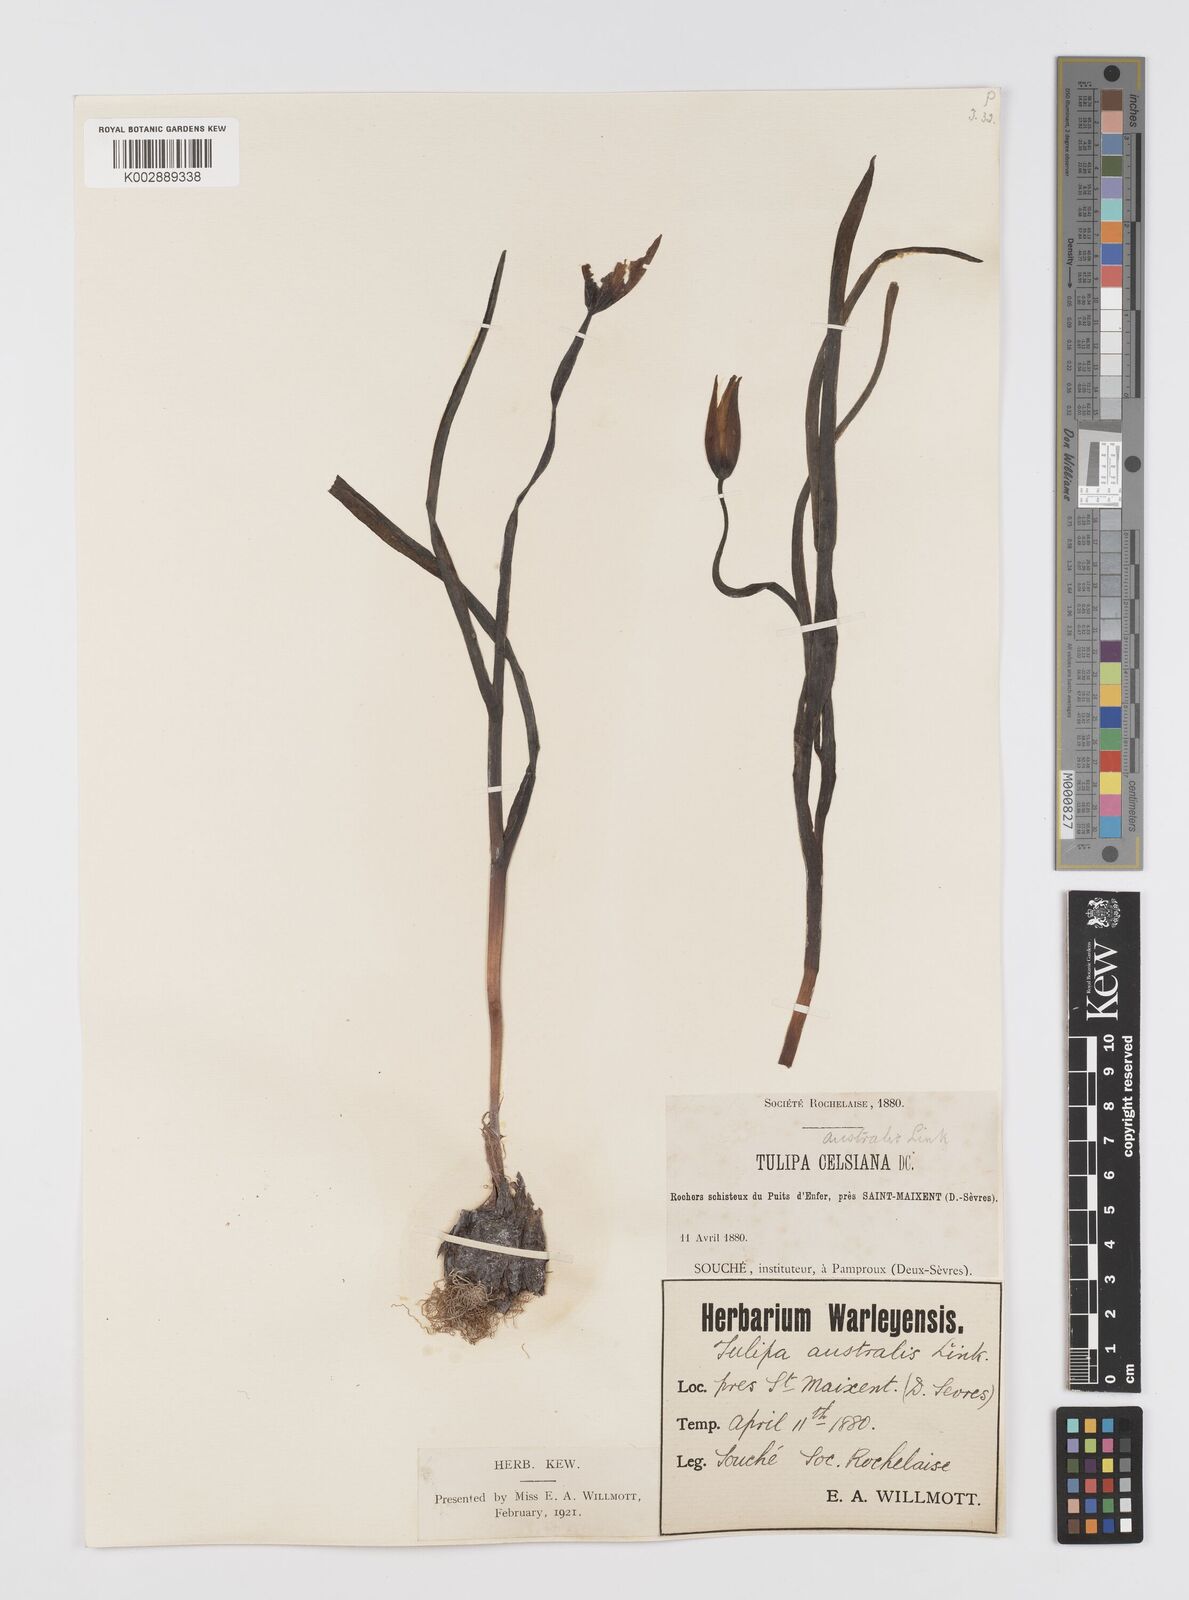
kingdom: Plantae
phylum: Tracheophyta
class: Liliopsida
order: Liliales
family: Liliaceae
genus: Tulipa
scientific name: Tulipa sylvestris
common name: Wild tulip
